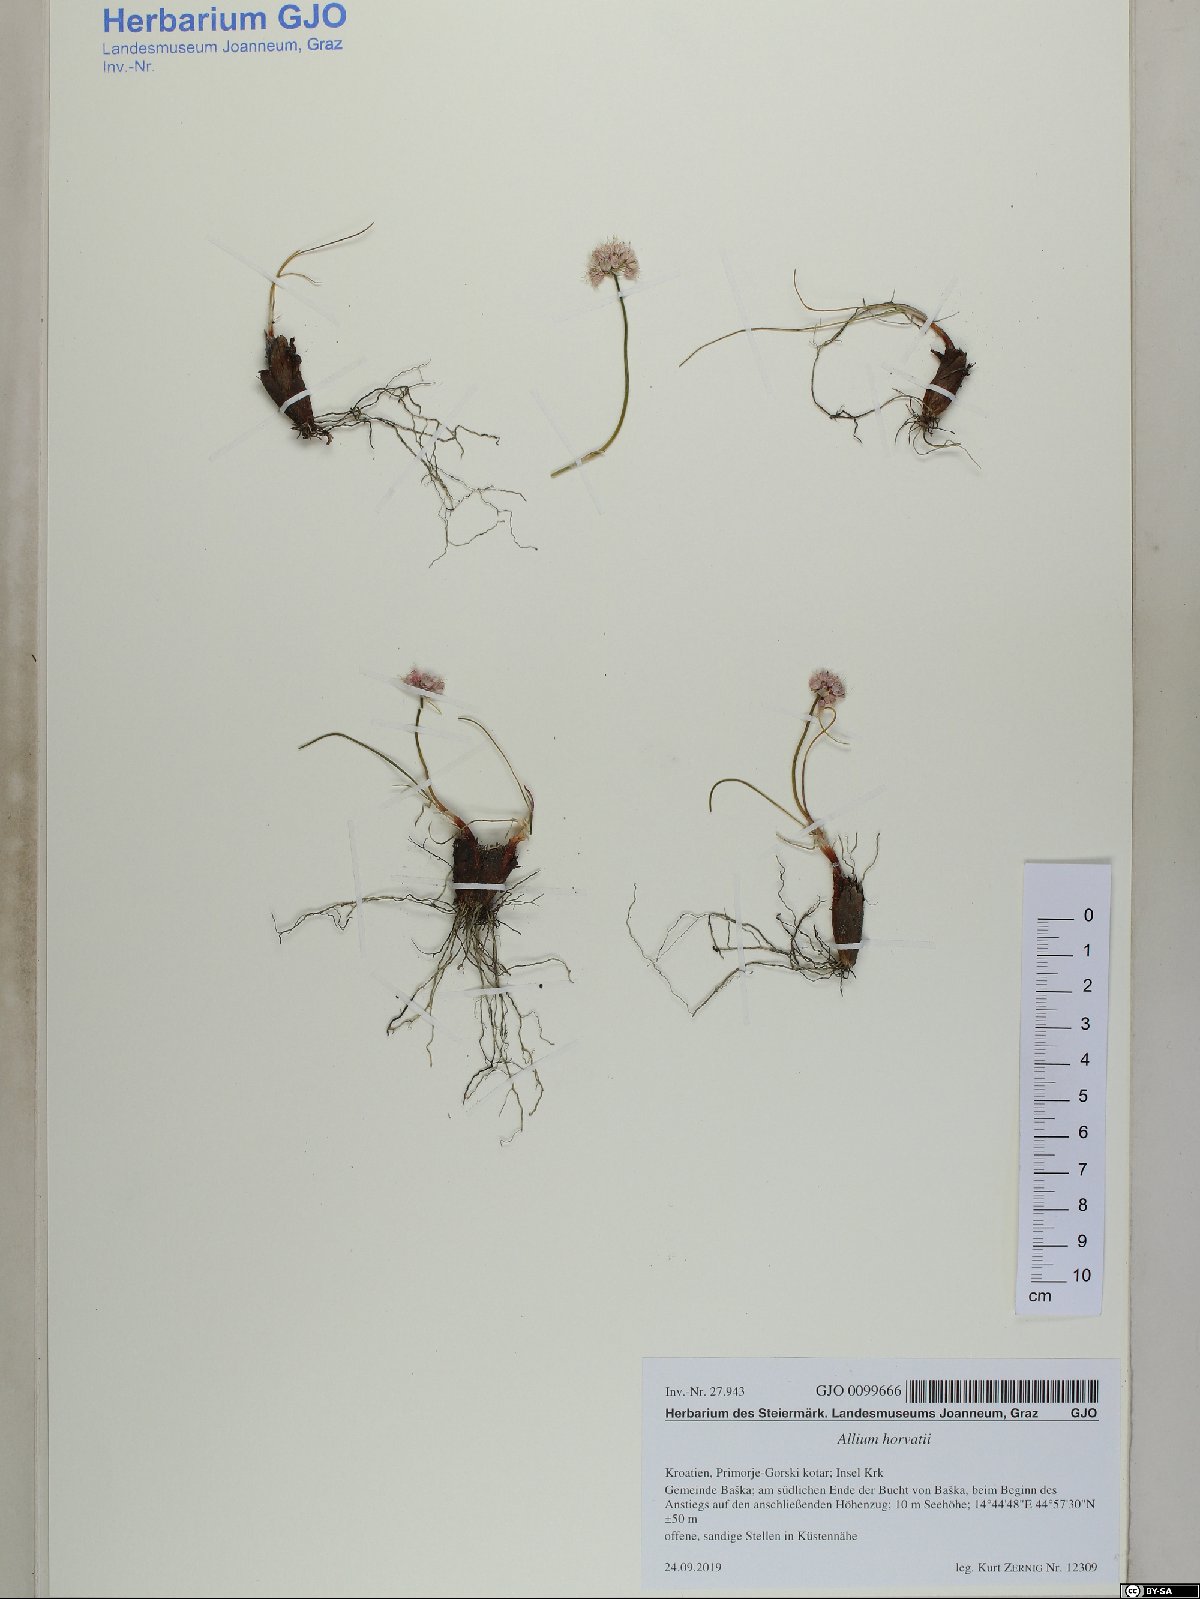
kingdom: Plantae
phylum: Tracheophyta
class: Liliopsida
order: Asparagales
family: Amaryllidaceae
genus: Allium
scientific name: Allium horvatii
